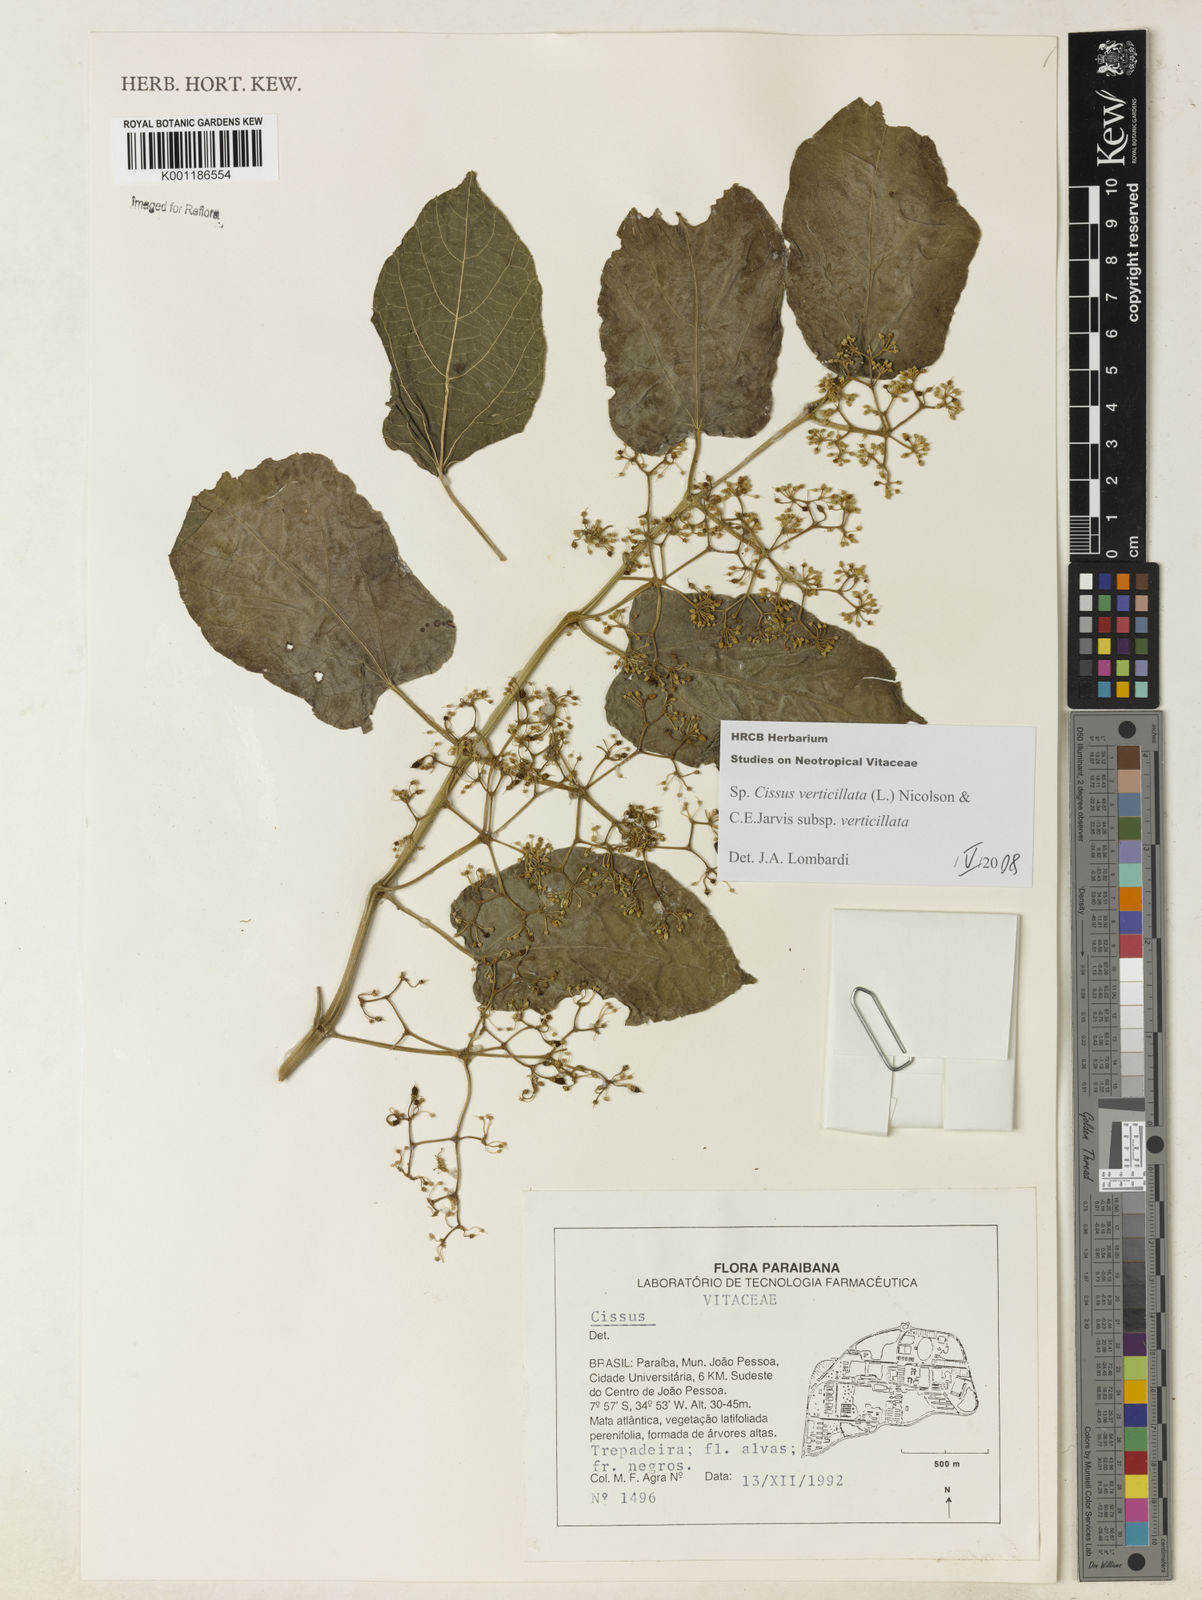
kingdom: Plantae
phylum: Tracheophyta
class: Magnoliopsida
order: Vitales
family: Vitaceae
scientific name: Vitaceae
